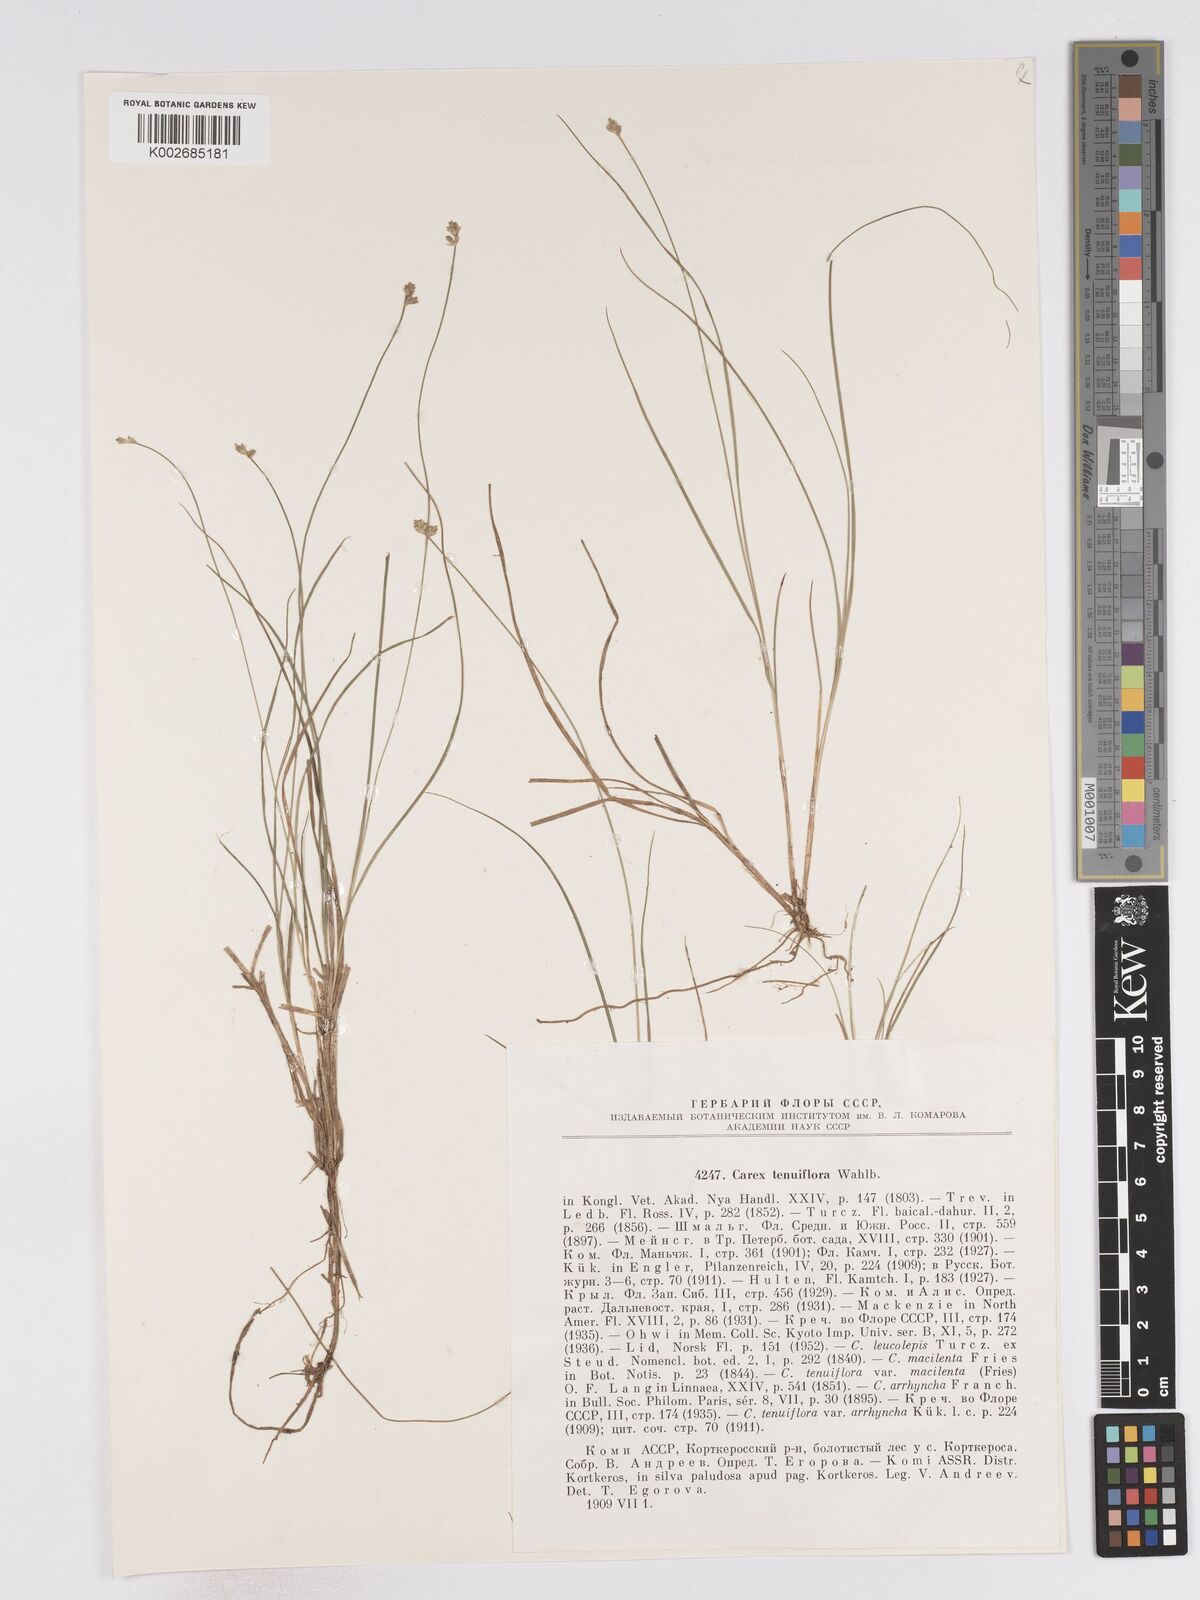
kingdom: Plantae
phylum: Tracheophyta
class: Liliopsida
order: Poales
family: Cyperaceae
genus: Carex
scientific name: Carex tenuiflora
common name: Sparse-flowered sedge
